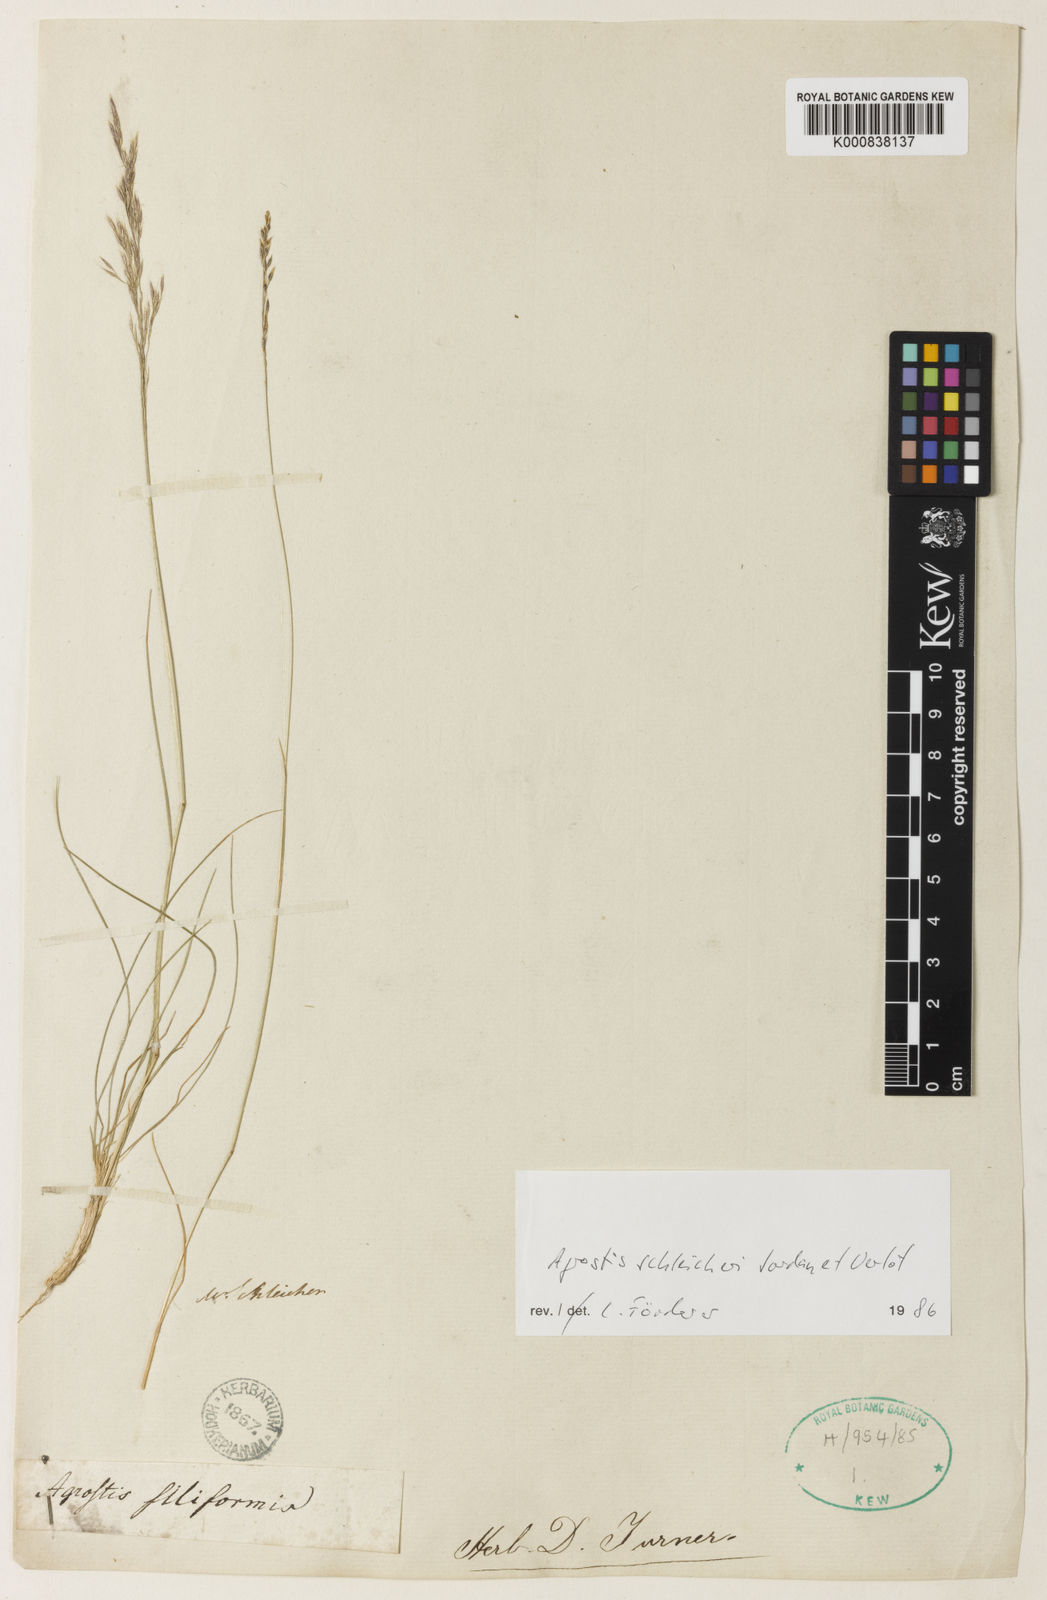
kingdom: Plantae
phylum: Tracheophyta
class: Liliopsida
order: Poales
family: Poaceae
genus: Agrostis
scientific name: Agrostis
